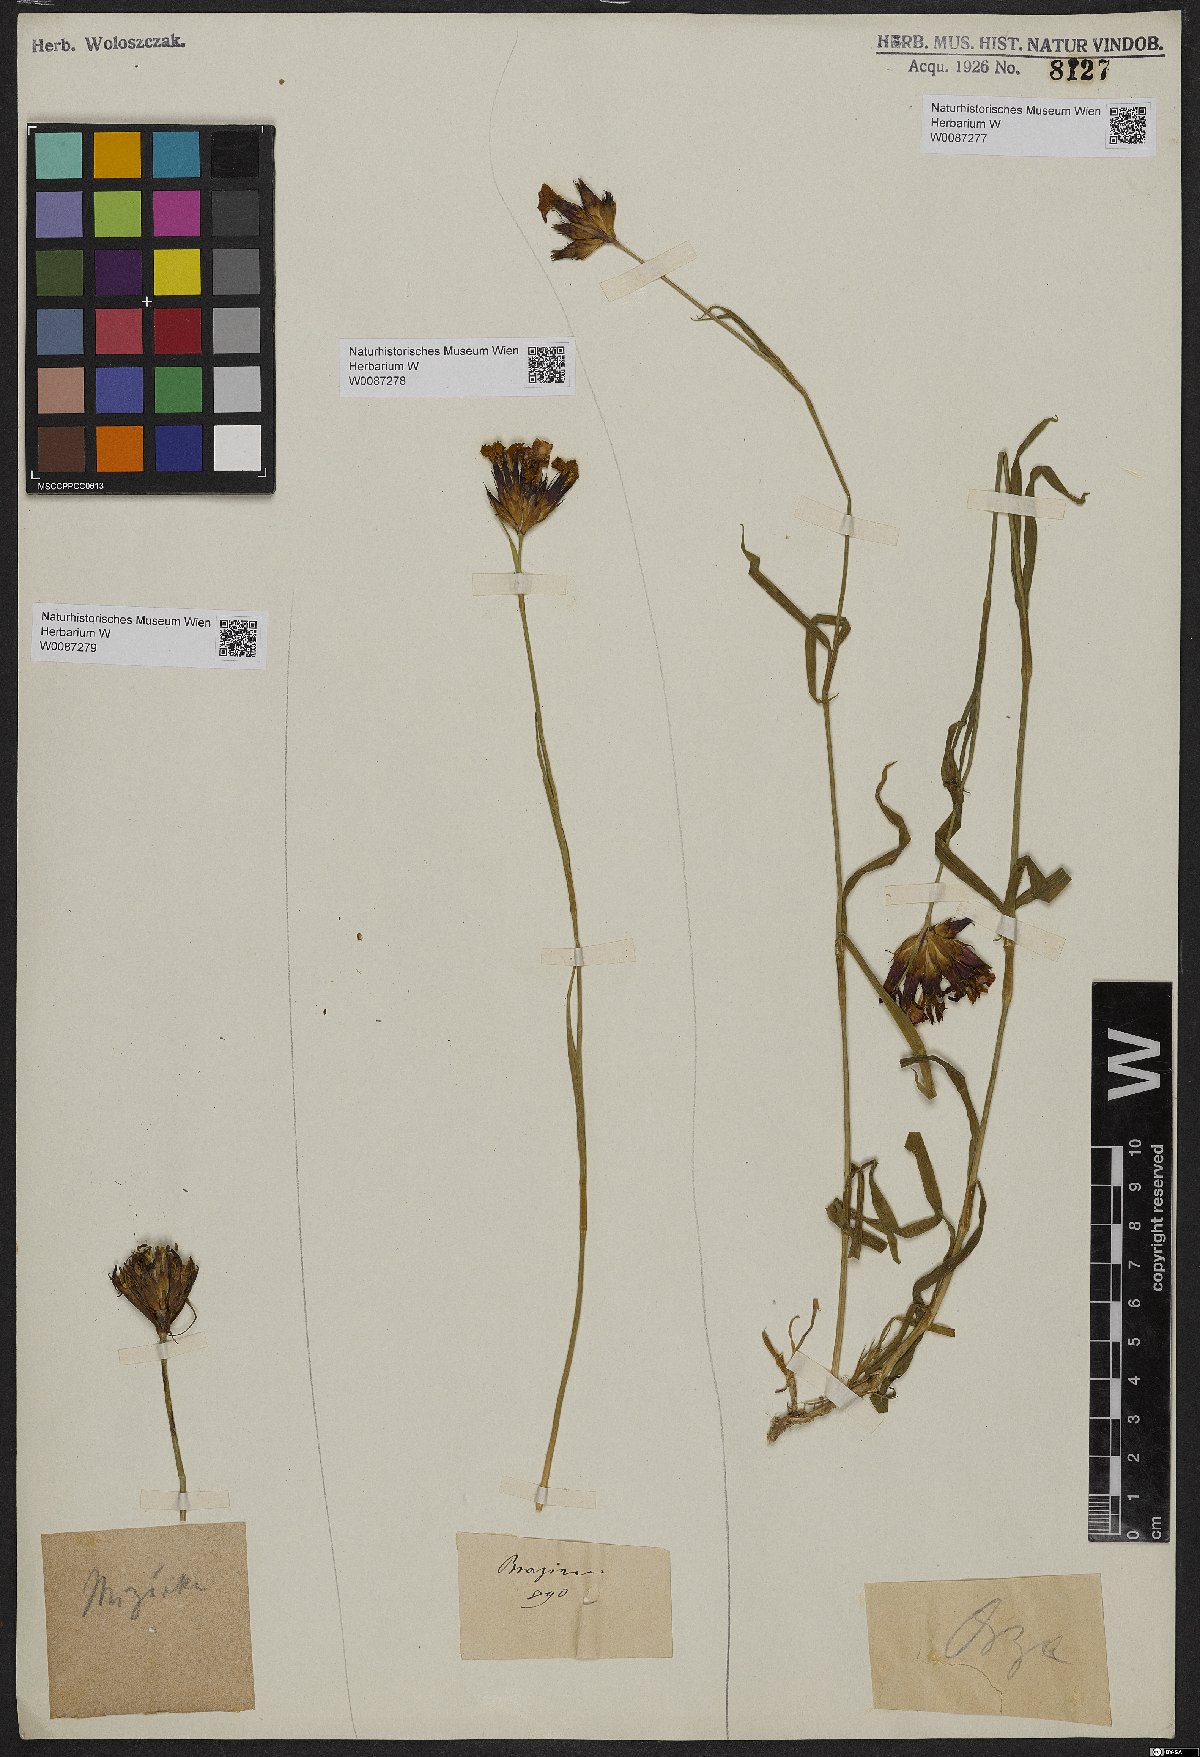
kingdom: Plantae
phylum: Tracheophyta
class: Magnoliopsida
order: Caryophyllales
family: Caryophyllaceae
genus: Dianthus
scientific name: Dianthus
